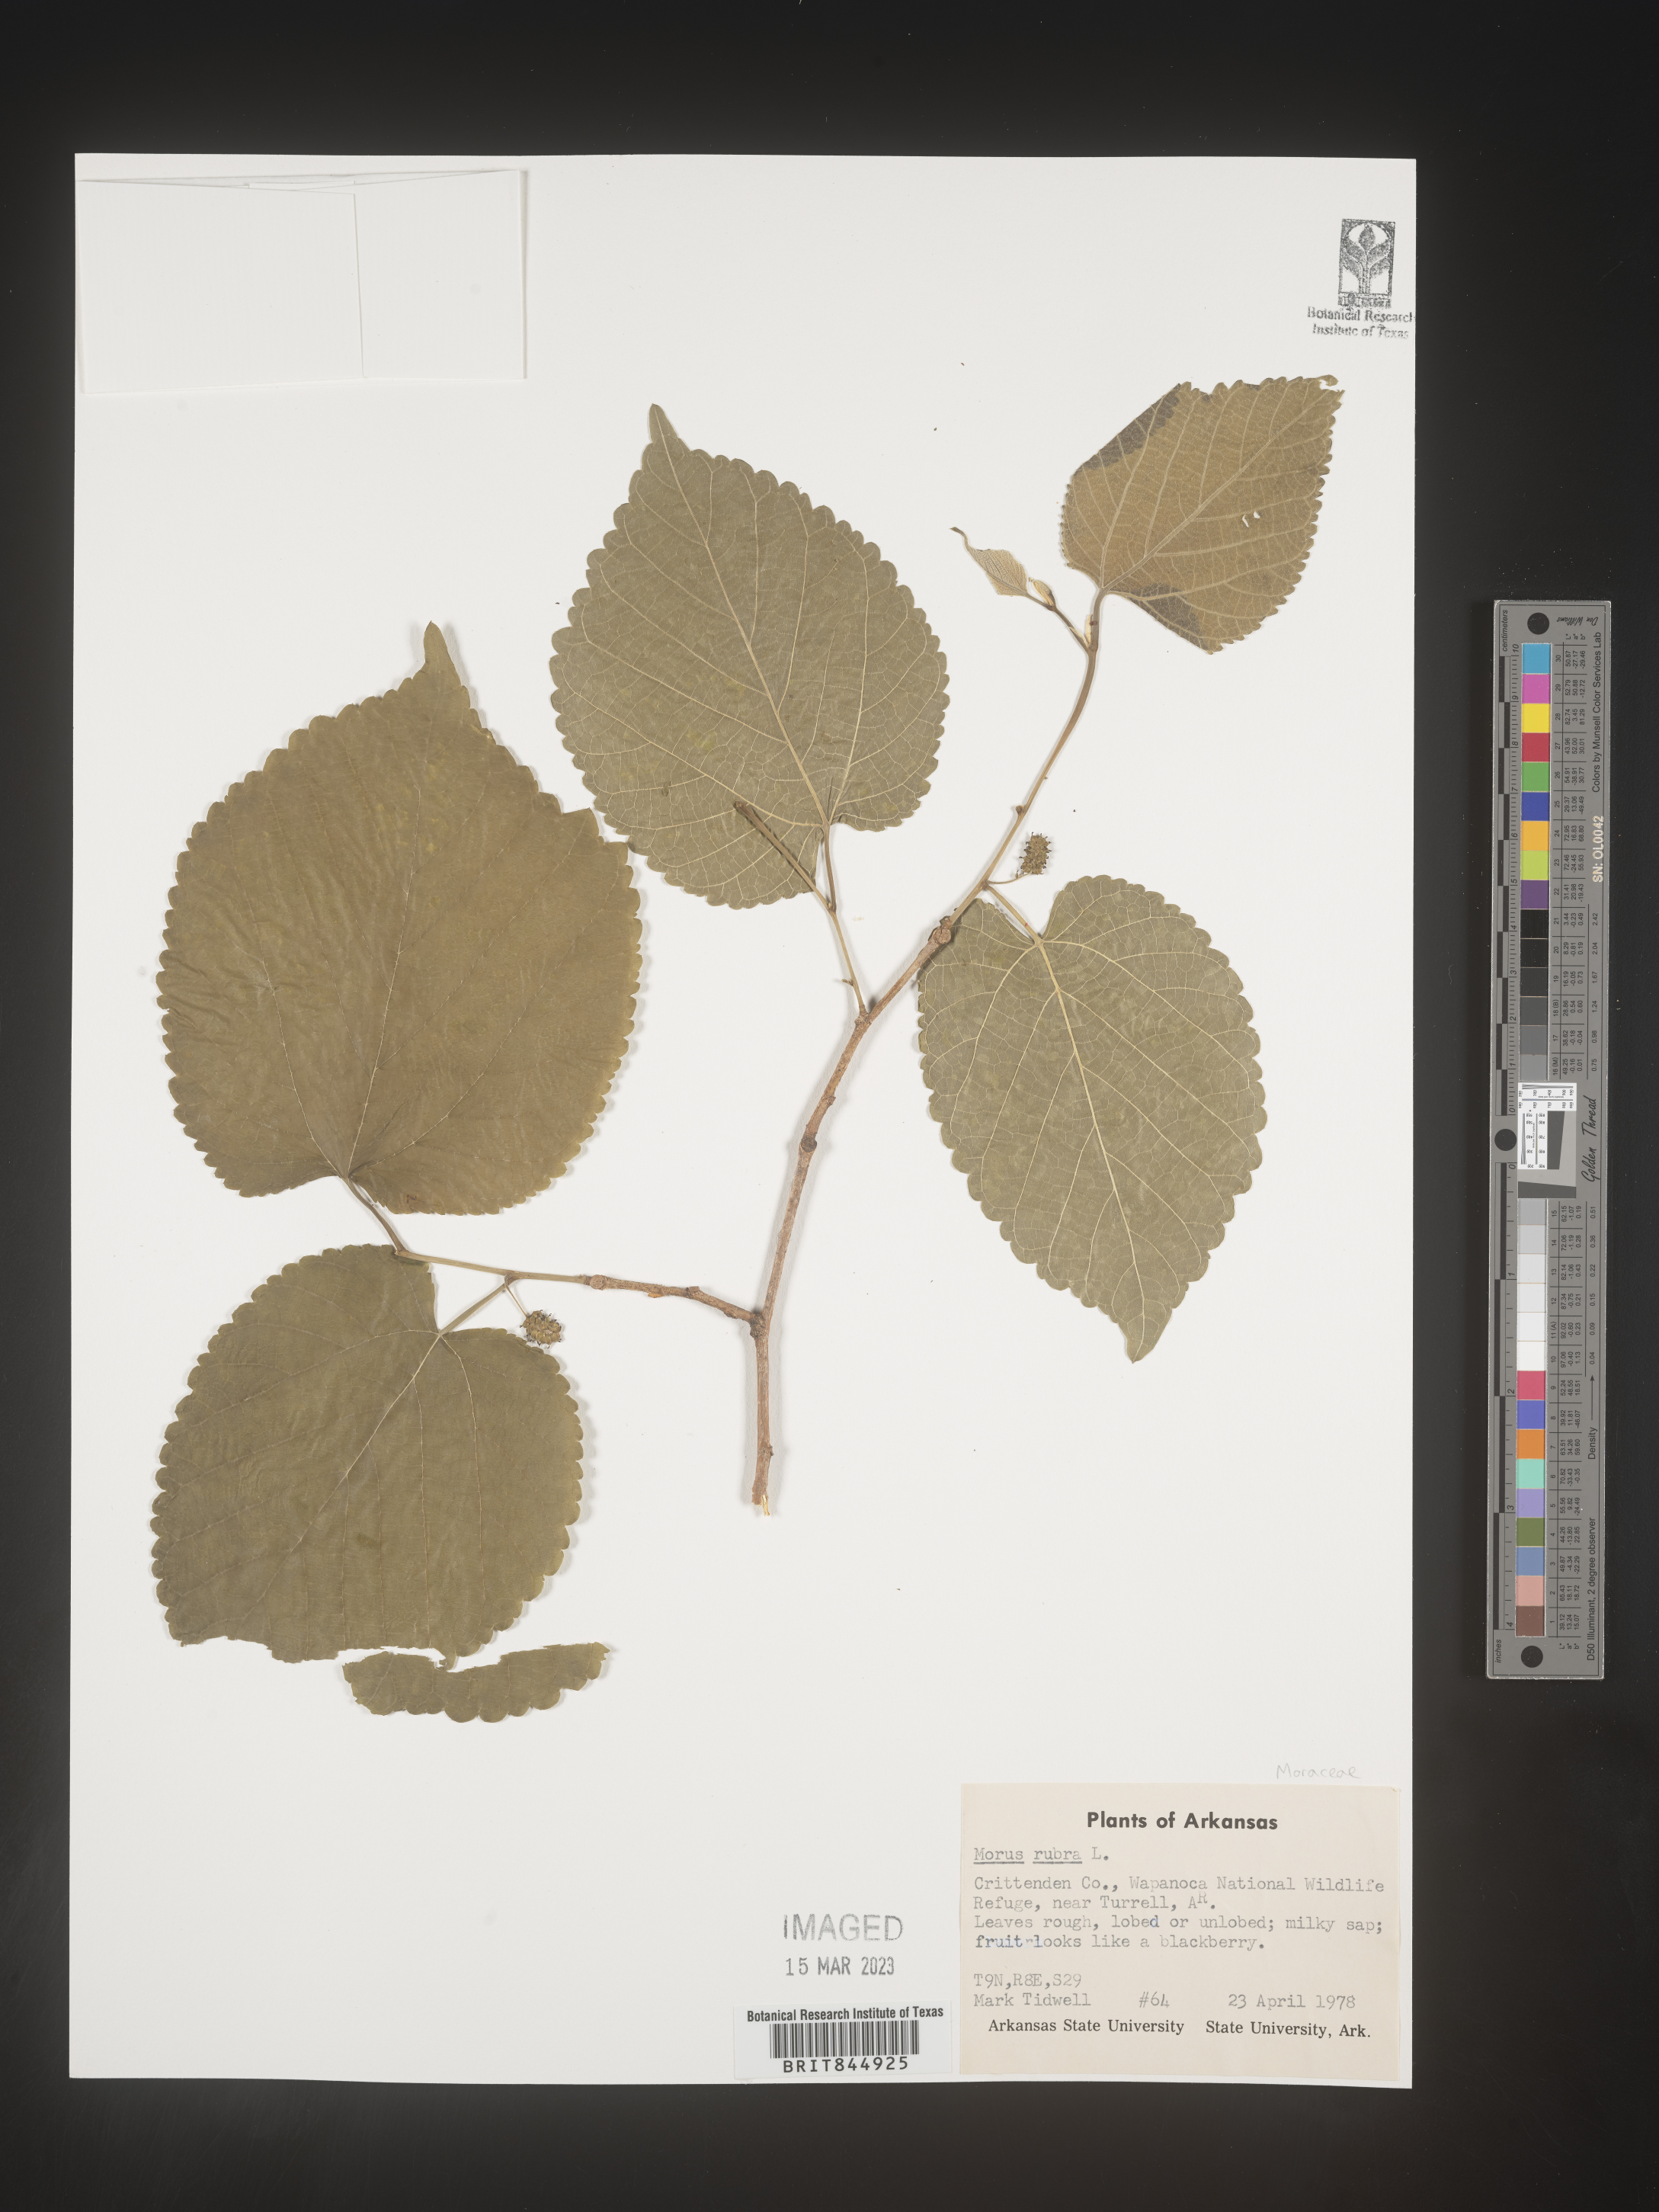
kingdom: Plantae
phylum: Tracheophyta
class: Magnoliopsida
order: Rosales
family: Moraceae
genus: Morus
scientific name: Morus rubra
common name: Red mulberry
